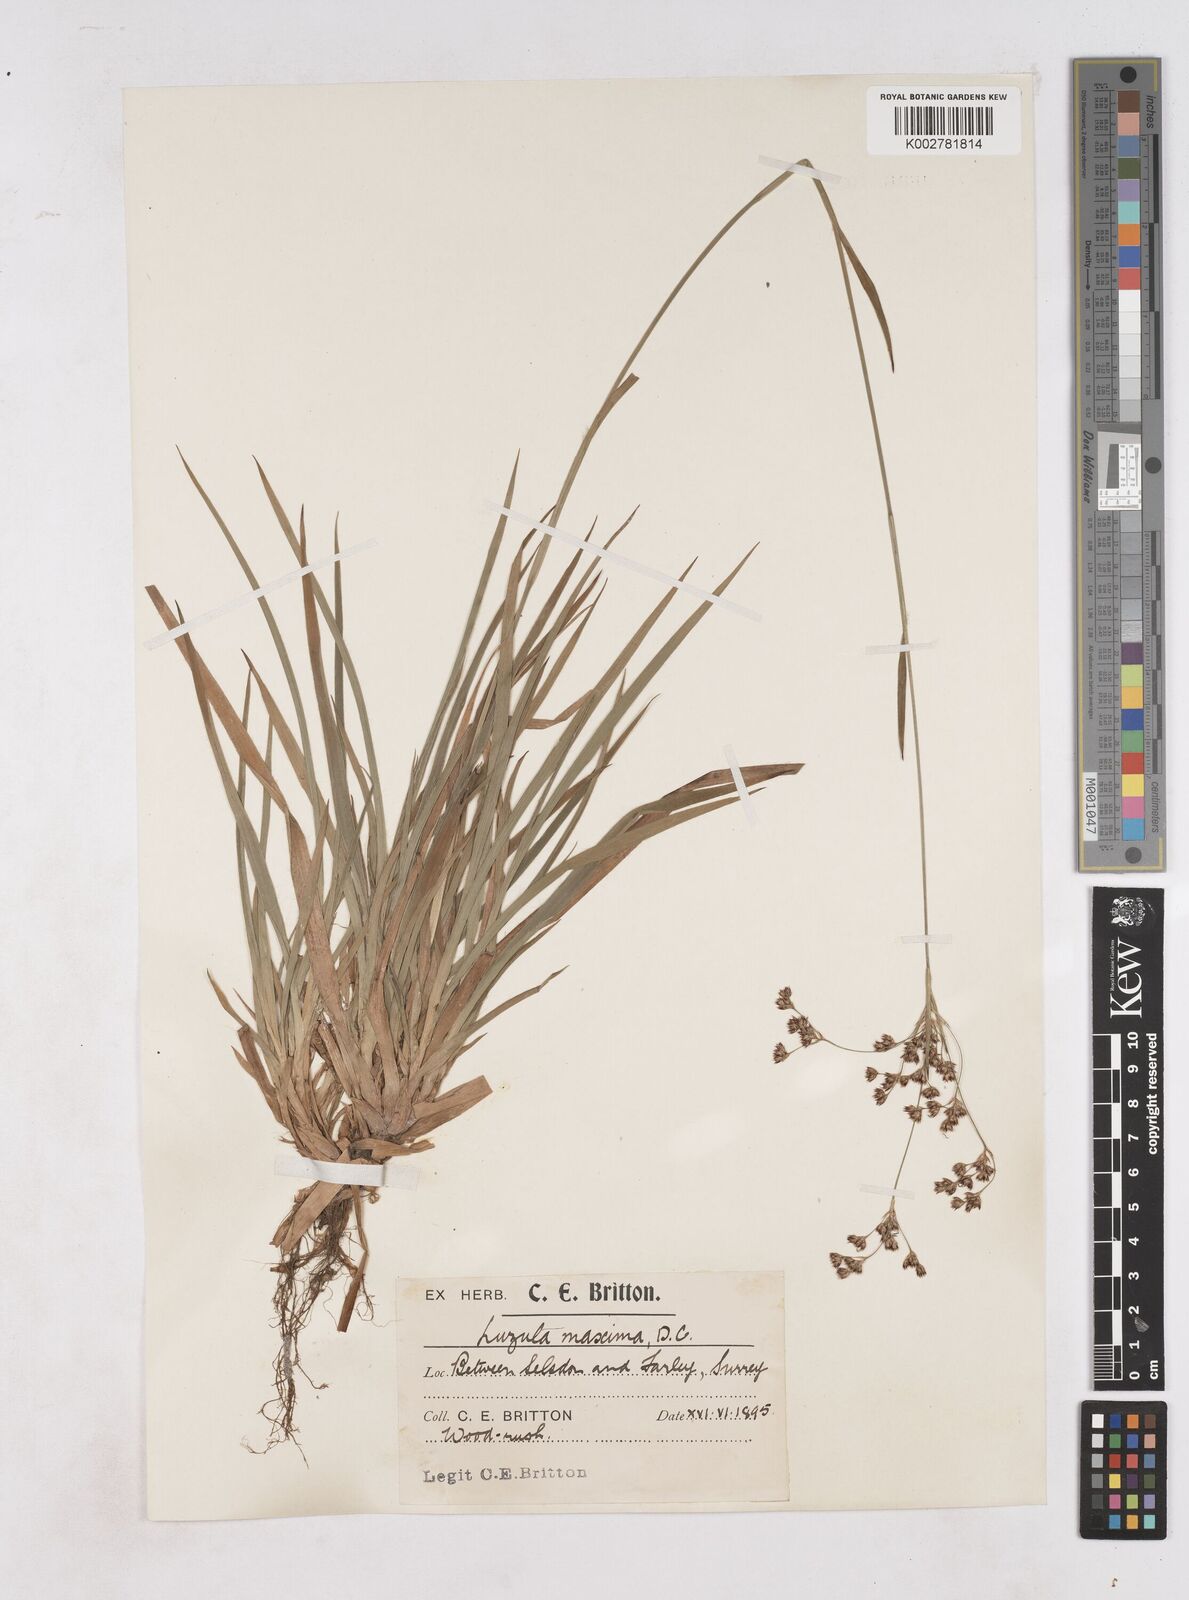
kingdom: Plantae
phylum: Tracheophyta
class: Liliopsida
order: Poales
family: Juncaceae
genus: Luzula
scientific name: Luzula sylvatica
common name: Great wood-rush
